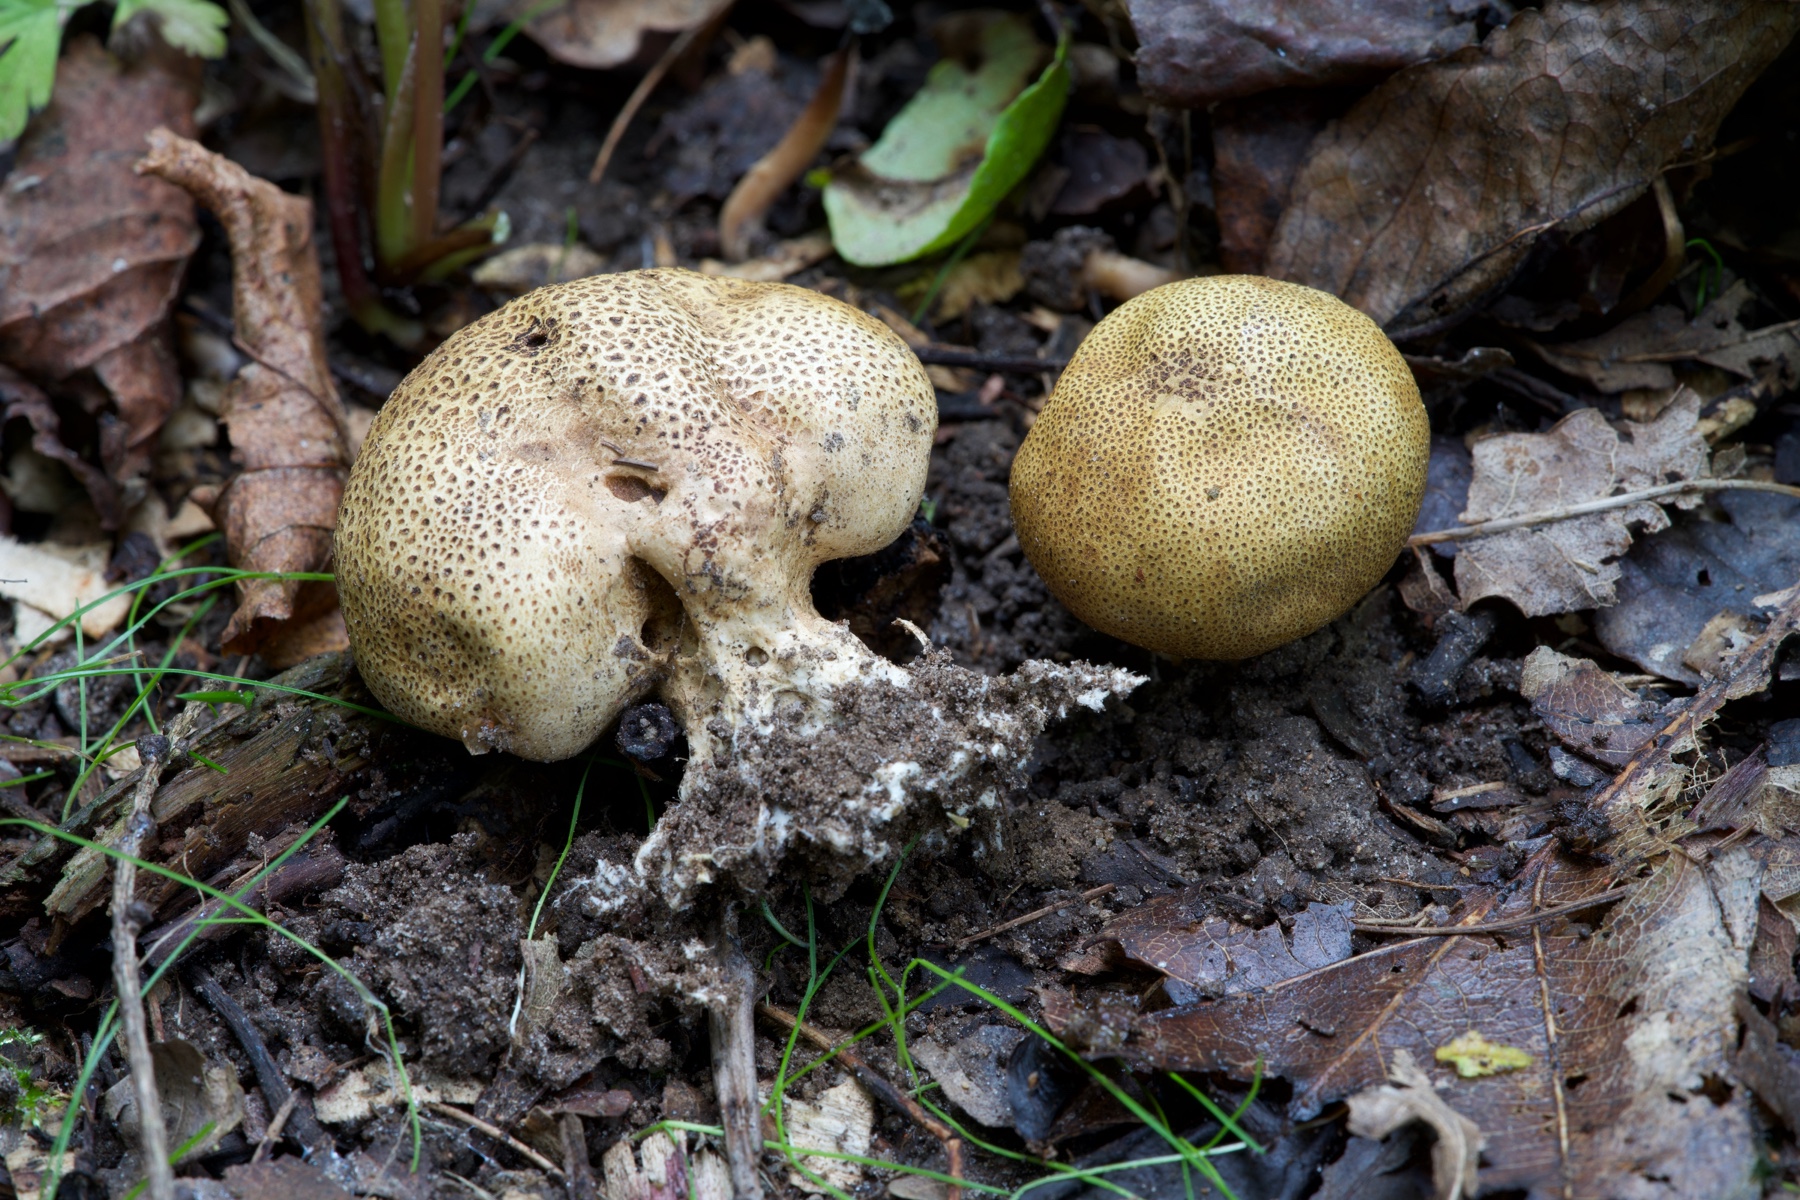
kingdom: Fungi
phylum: Basidiomycota
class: Agaricomycetes
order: Boletales
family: Sclerodermataceae
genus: Scleroderma
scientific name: Scleroderma areolatum
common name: plettet bruskbold
